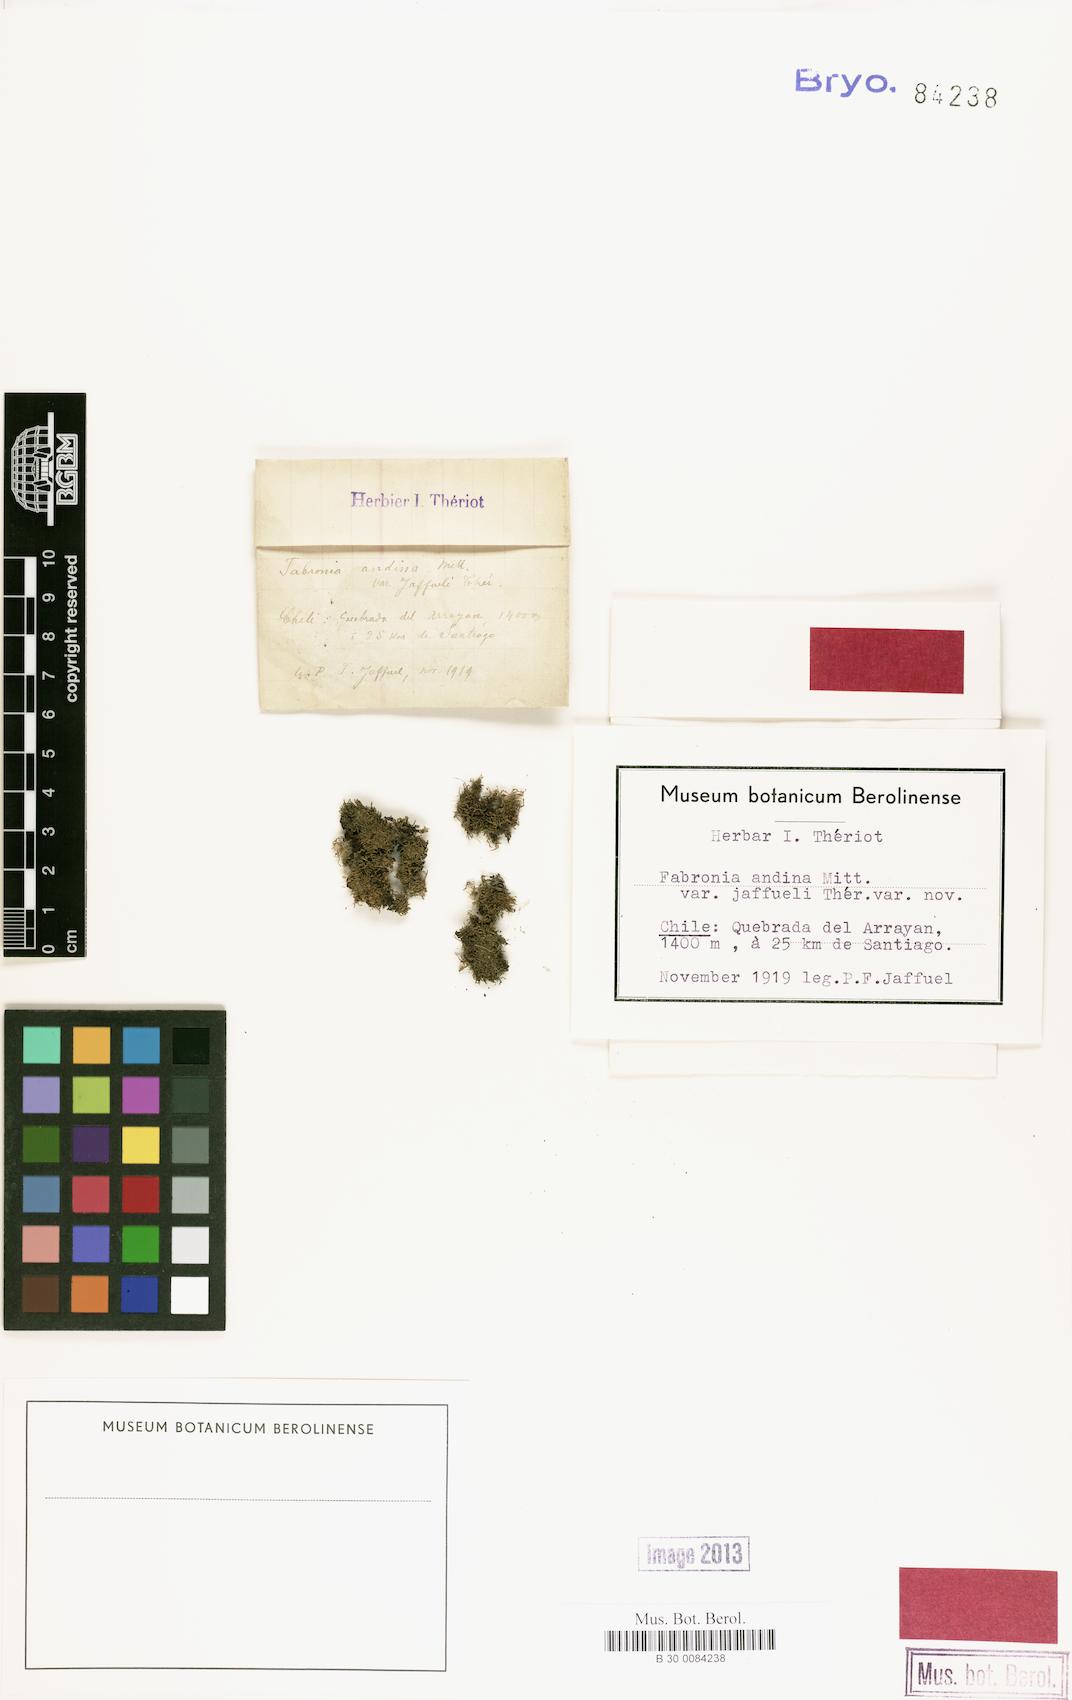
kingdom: Plantae
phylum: Bryophyta
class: Bryopsida
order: Hypnales
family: Fabroniaceae
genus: Fabronia
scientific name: Fabronia jamesonii
